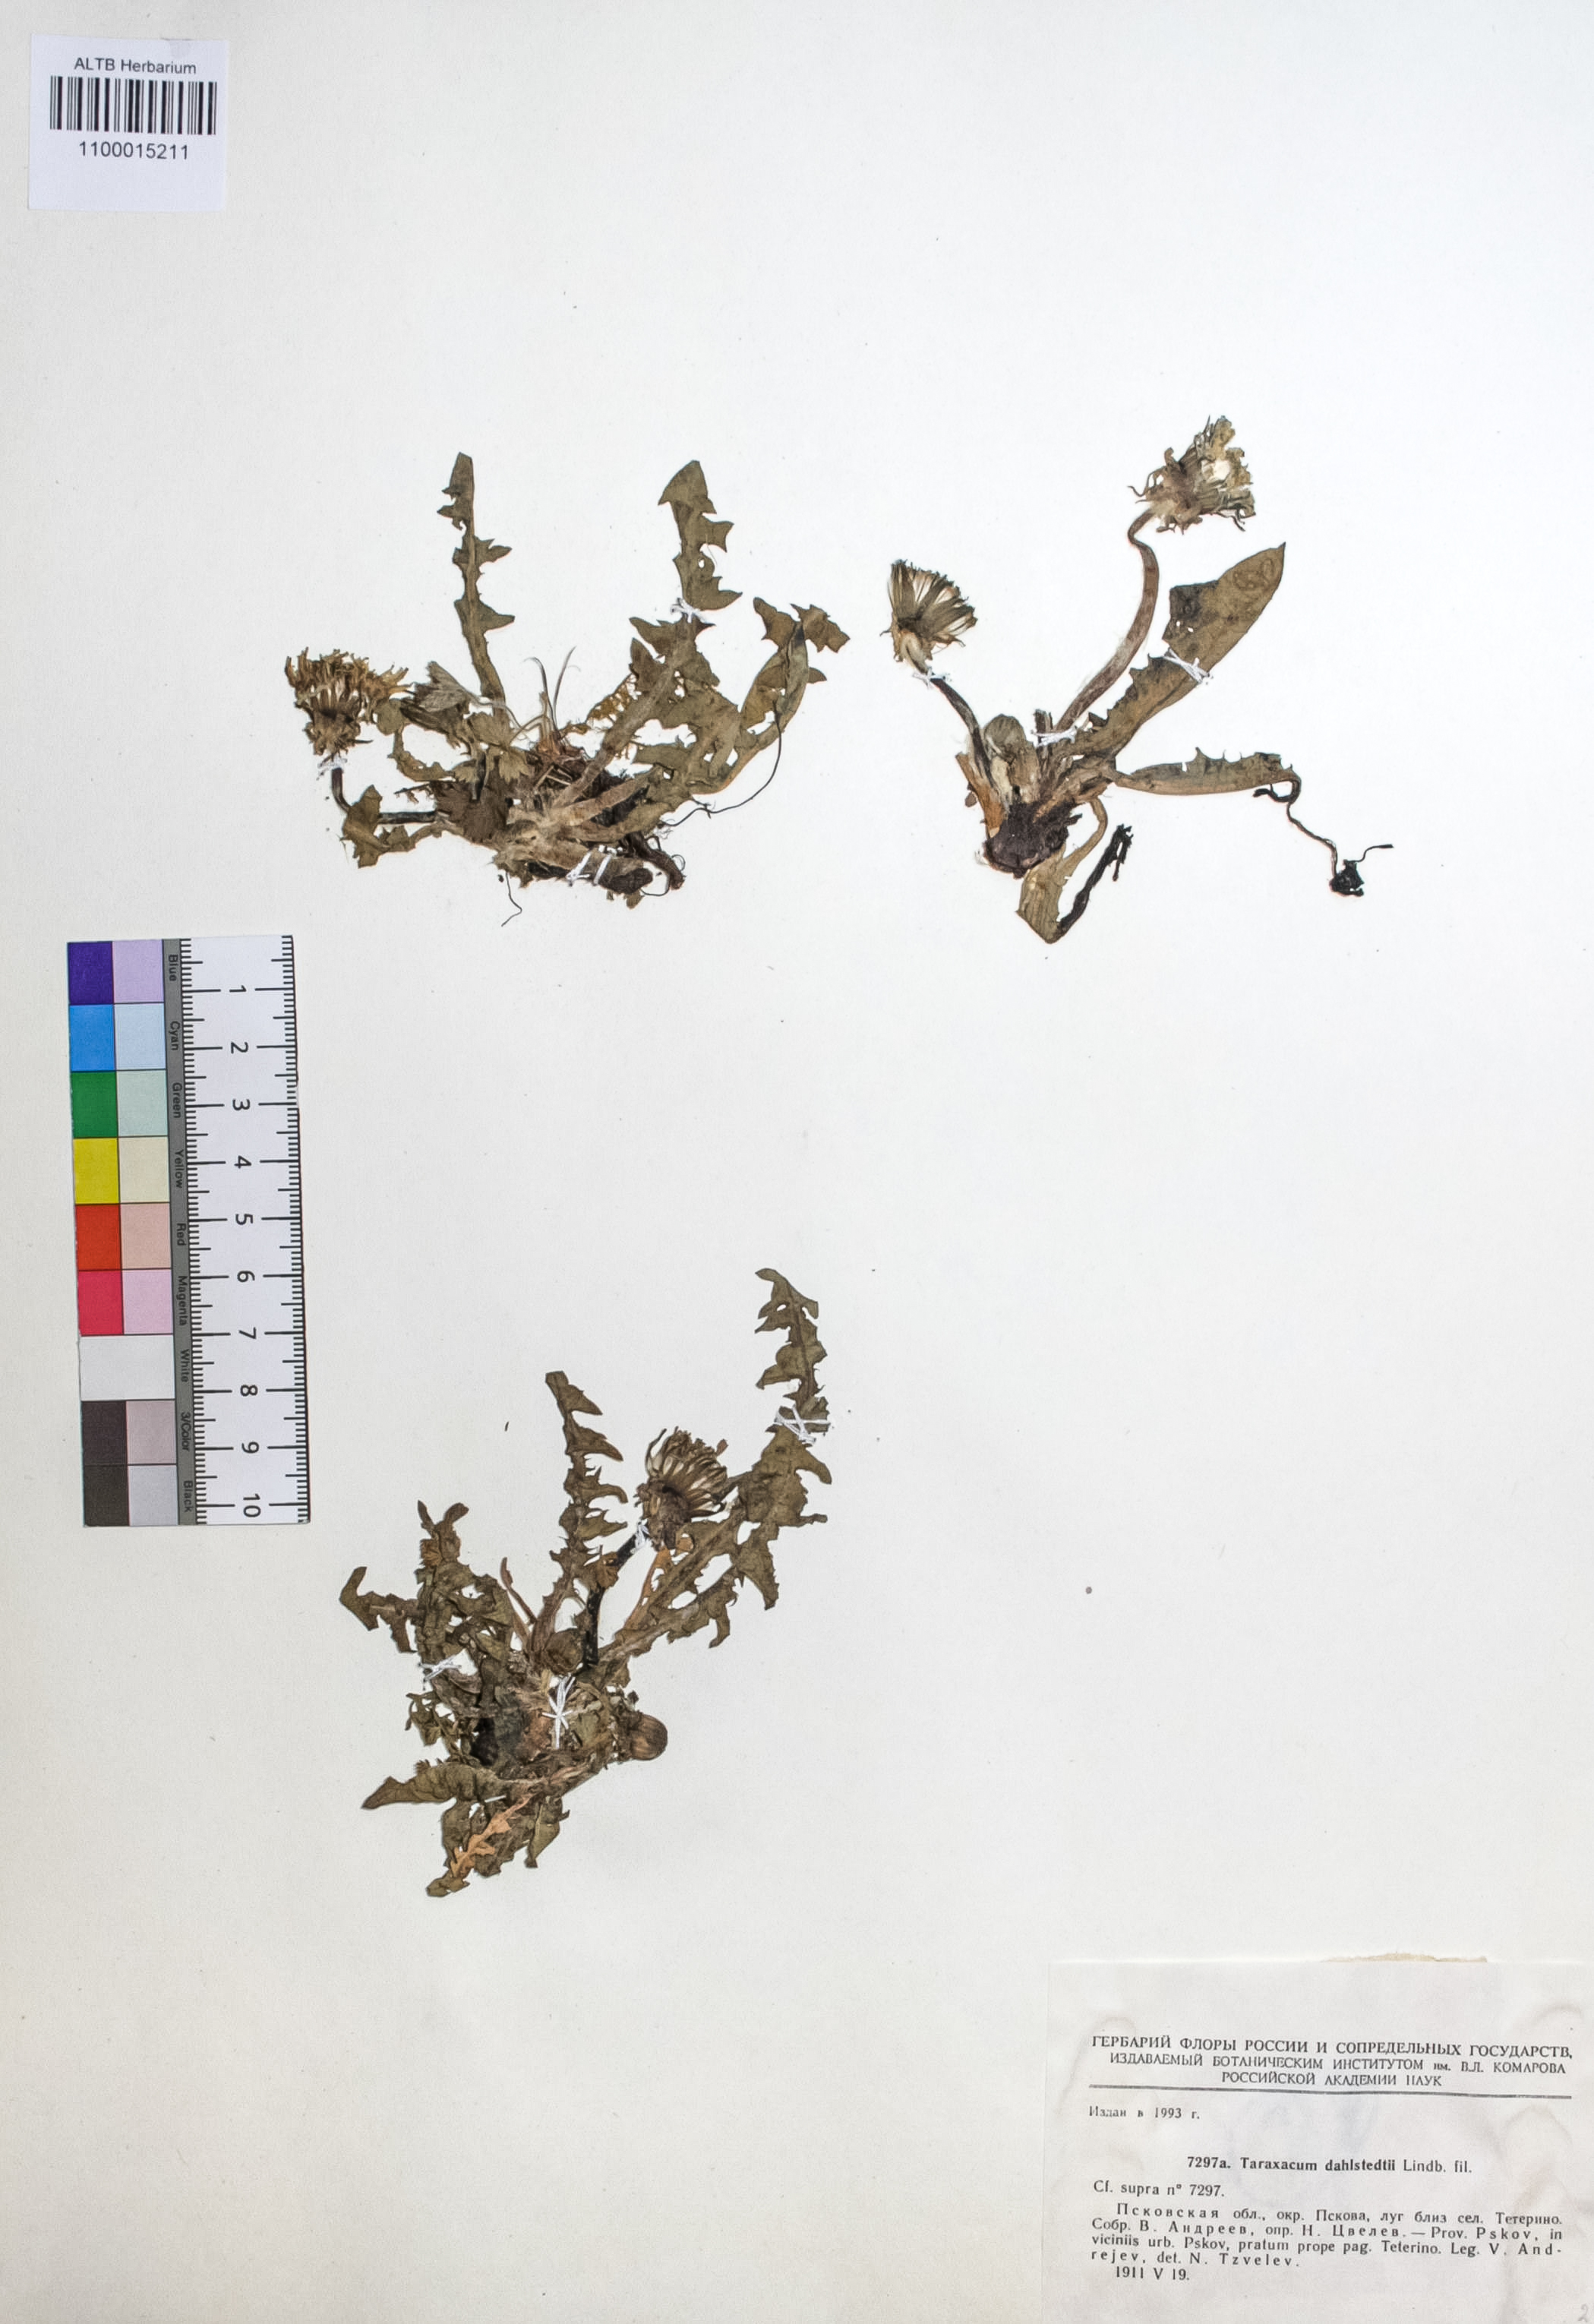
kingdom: Plantae
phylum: Tracheophyta
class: Magnoliopsida
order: Asterales
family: Asteraceae
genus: Taraxacum
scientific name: Taraxacum stenoglossum
